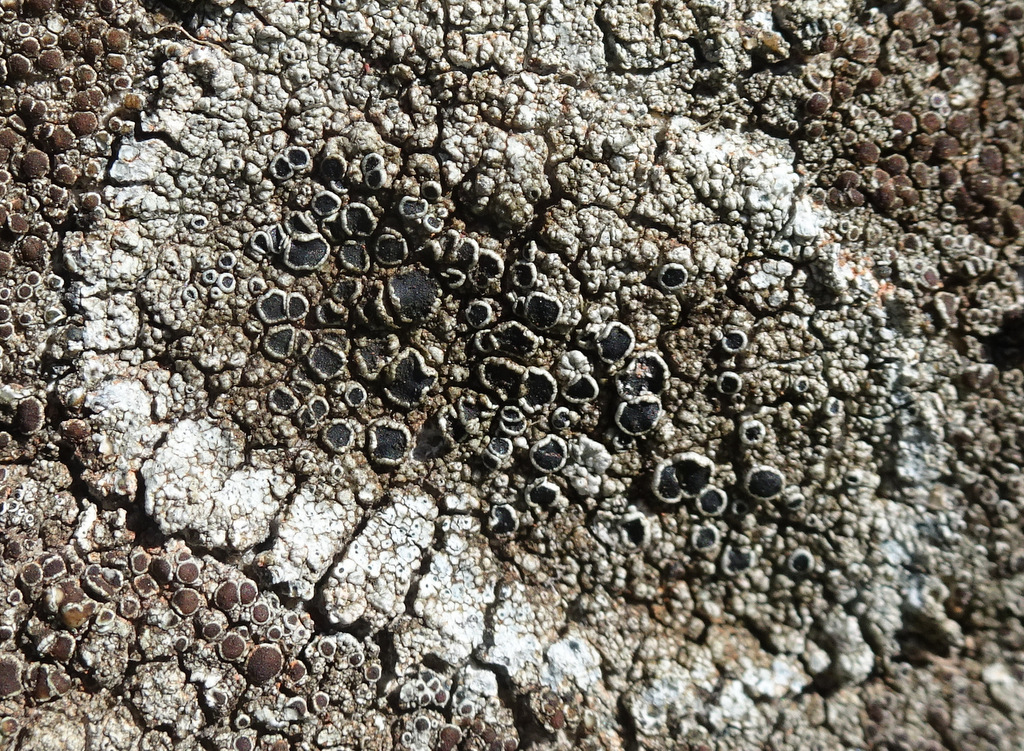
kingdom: Fungi
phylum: Ascomycota
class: Lecanoromycetes
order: Lecanorales
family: Tephromelataceae
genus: Tephromela
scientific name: Tephromela atra
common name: sortfrugtet kantskivelav
